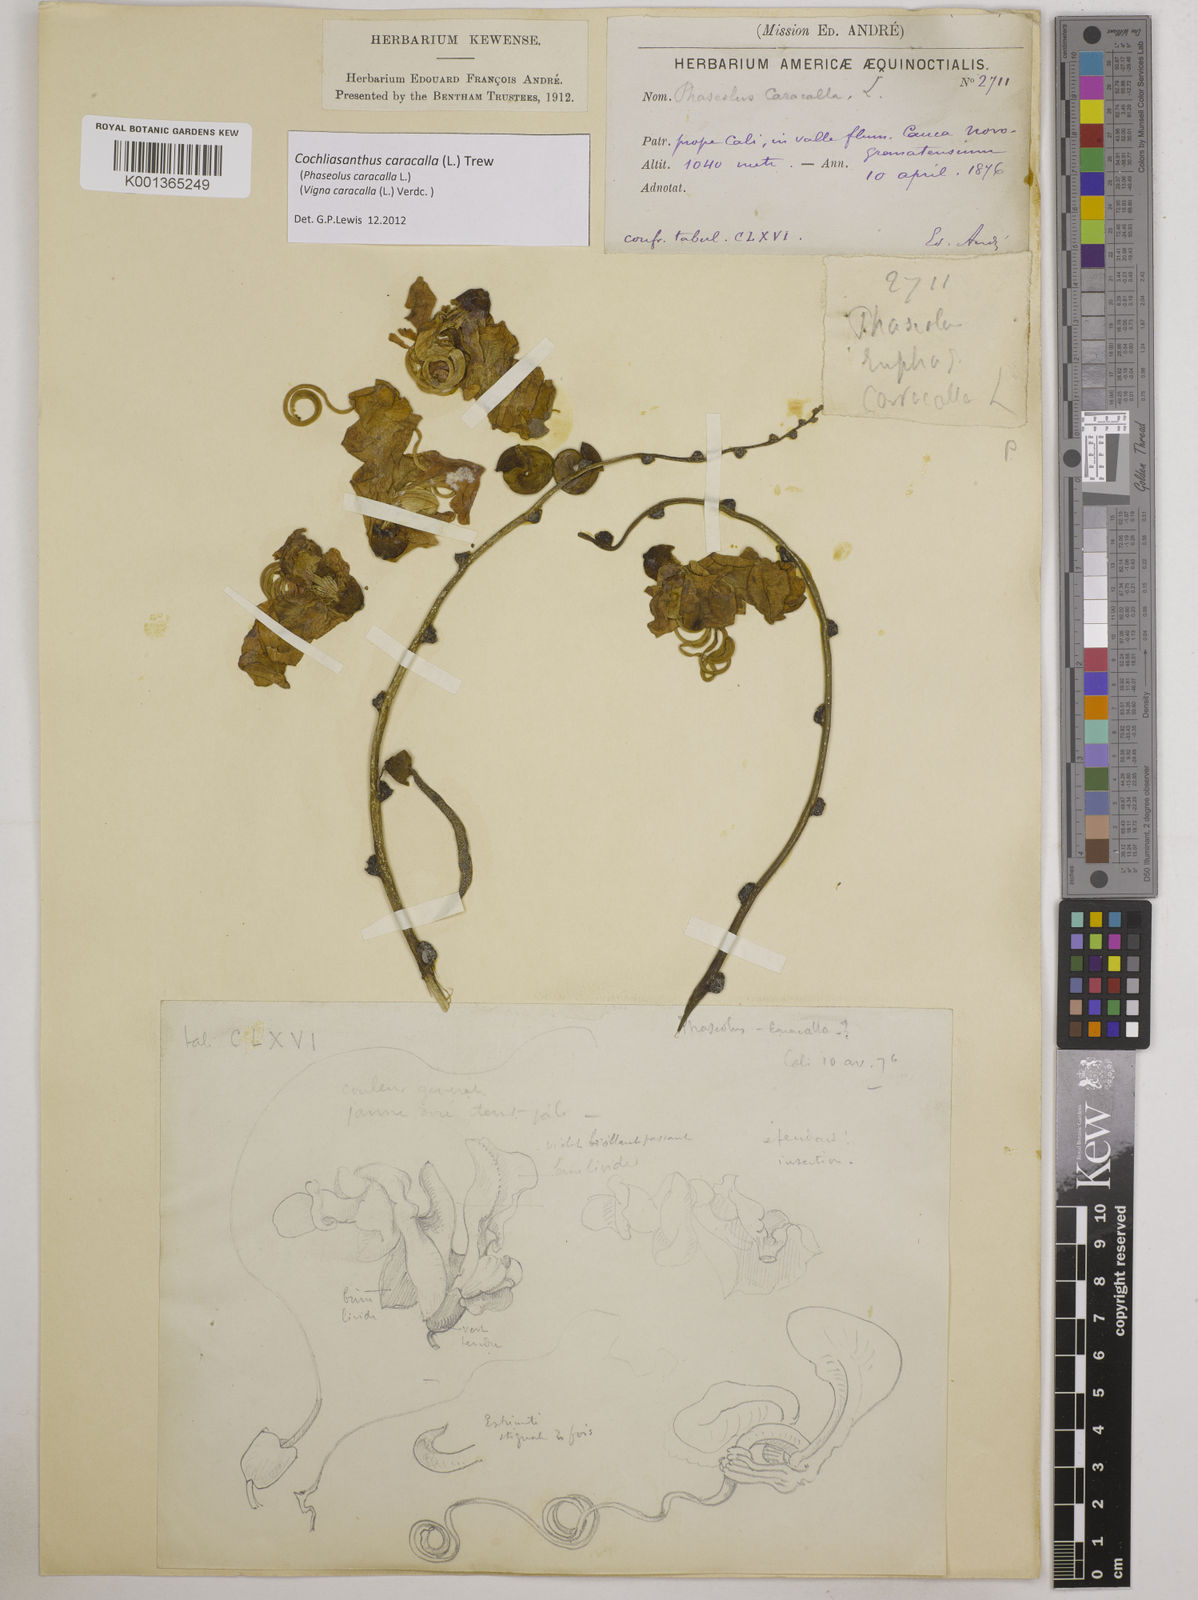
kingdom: Plantae
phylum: Tracheophyta
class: Magnoliopsida
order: Fabales
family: Fabaceae
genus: Cochliasanthus
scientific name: Cochliasanthus caracalla
